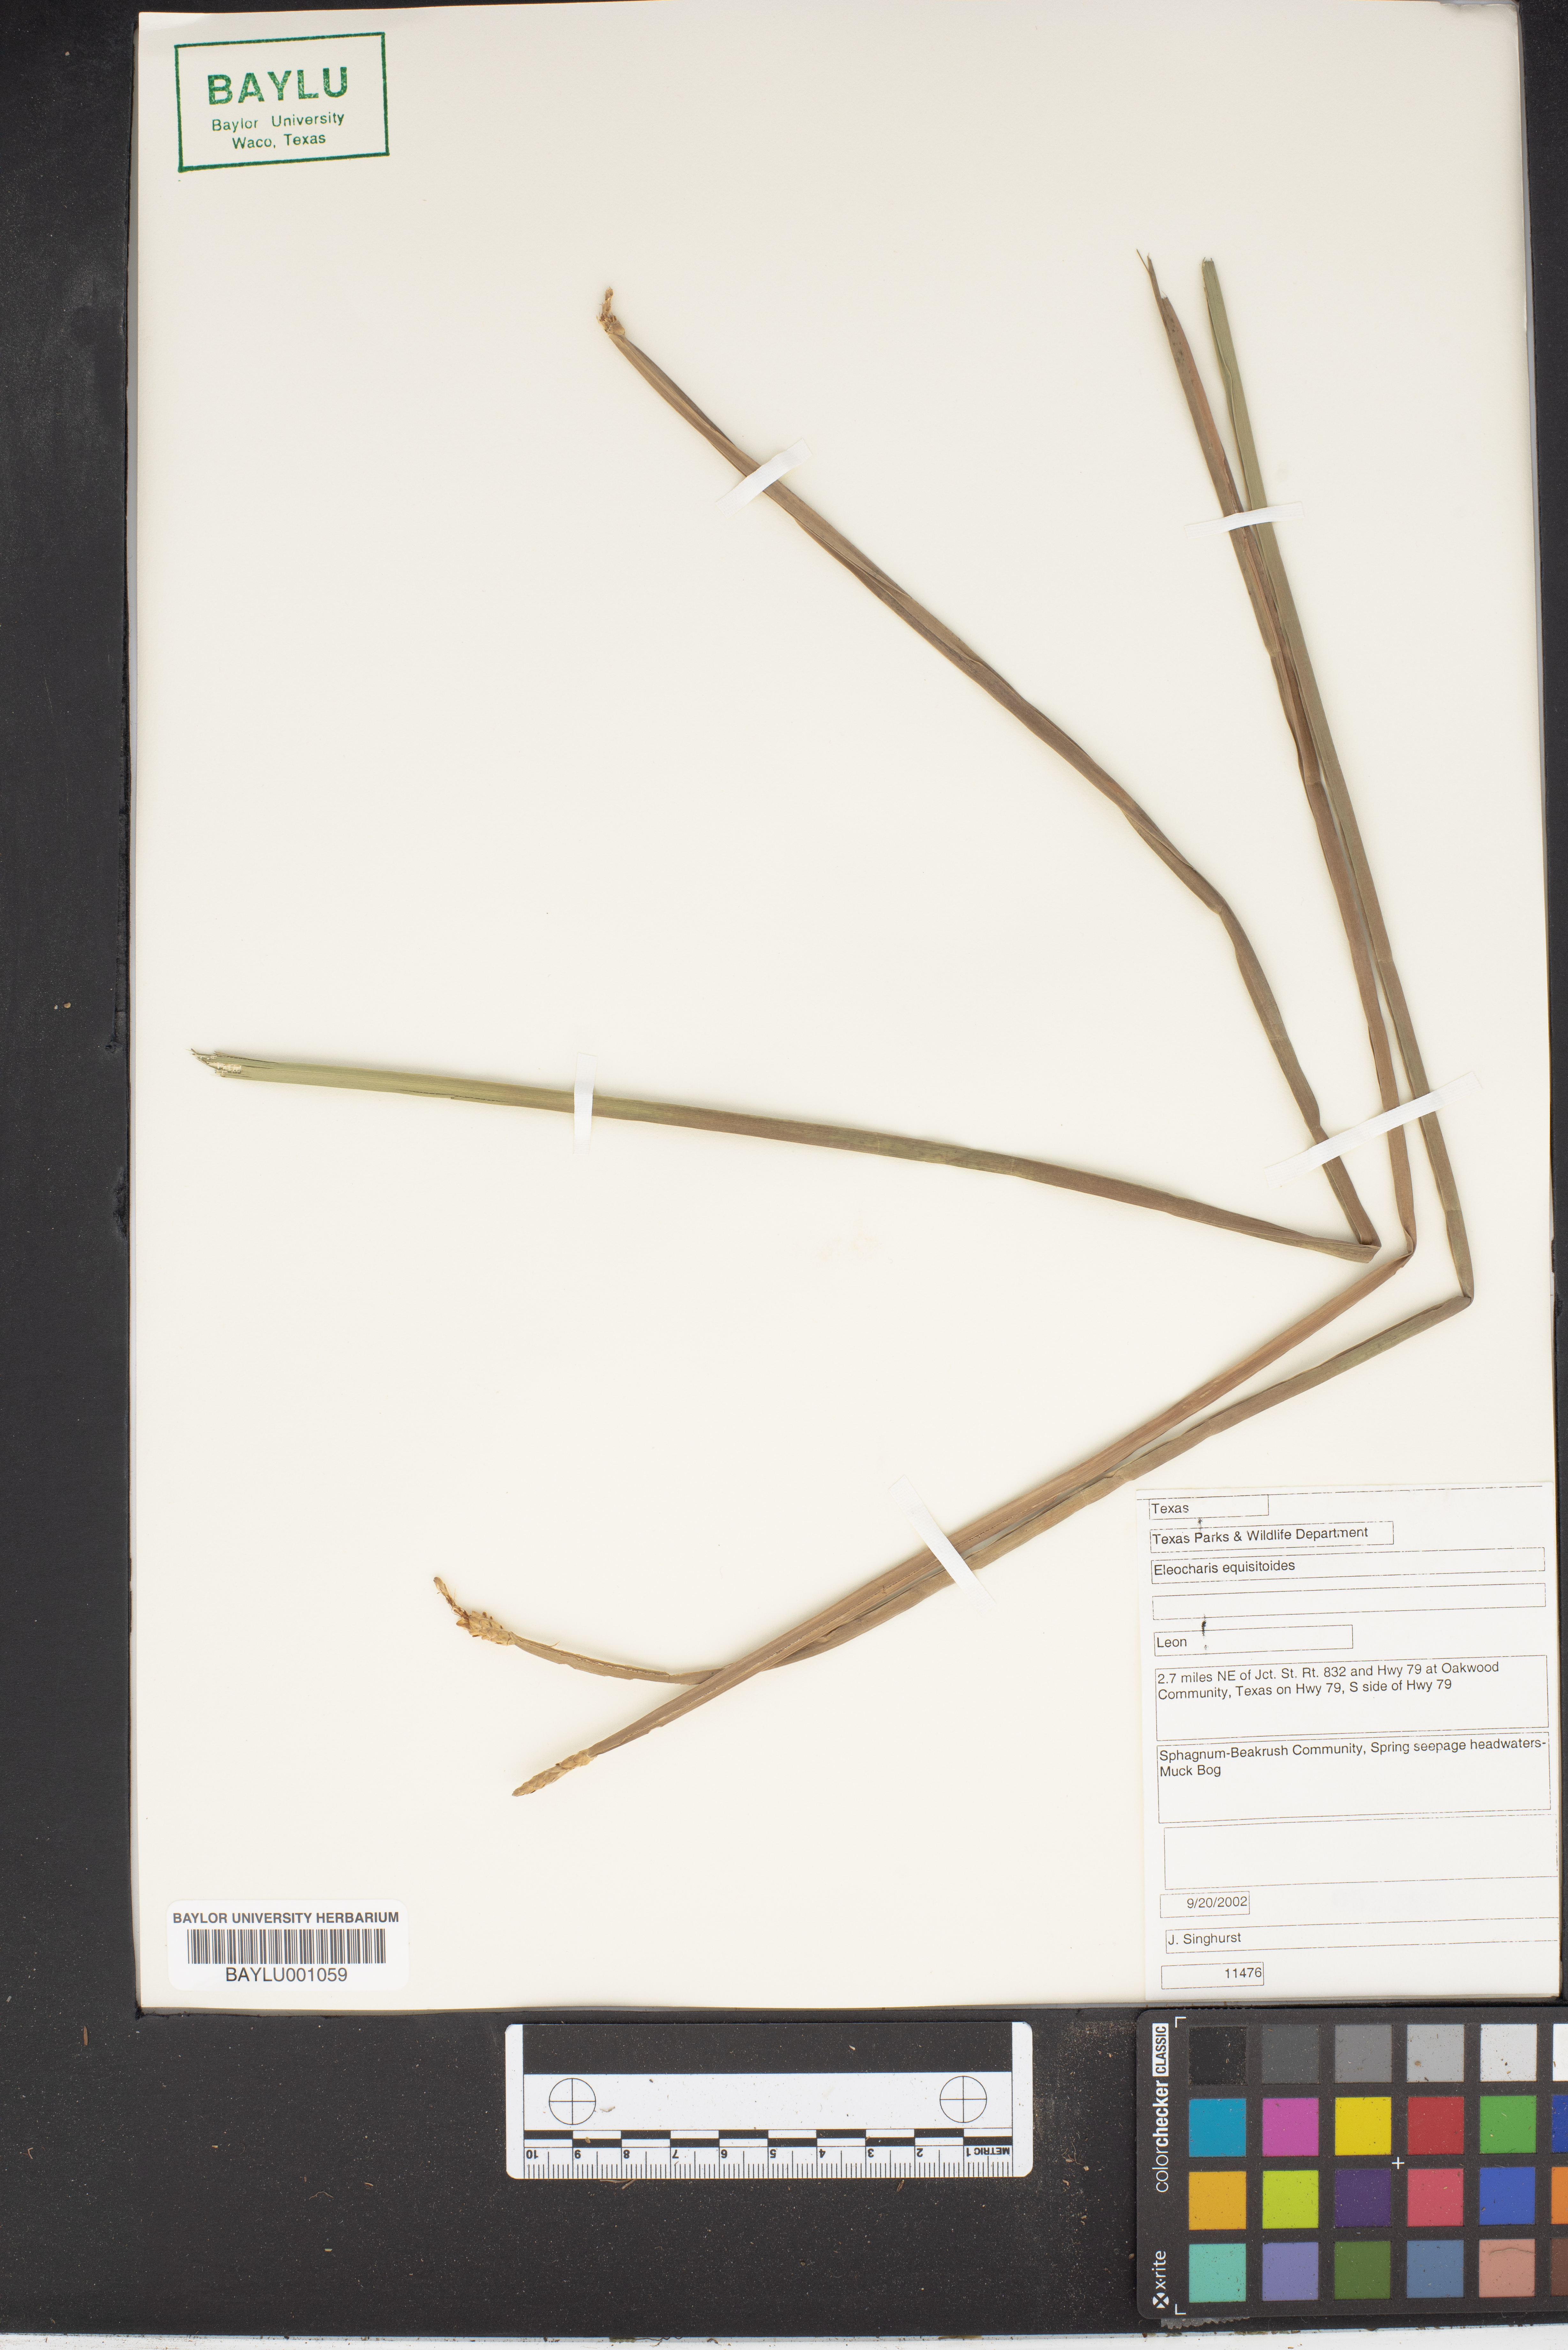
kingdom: Plantae
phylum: Tracheophyta
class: Liliopsida
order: Poales
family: Cyperaceae
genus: Eleocharis
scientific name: Eleocharis equisetoides
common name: Horsetail spike-rush
